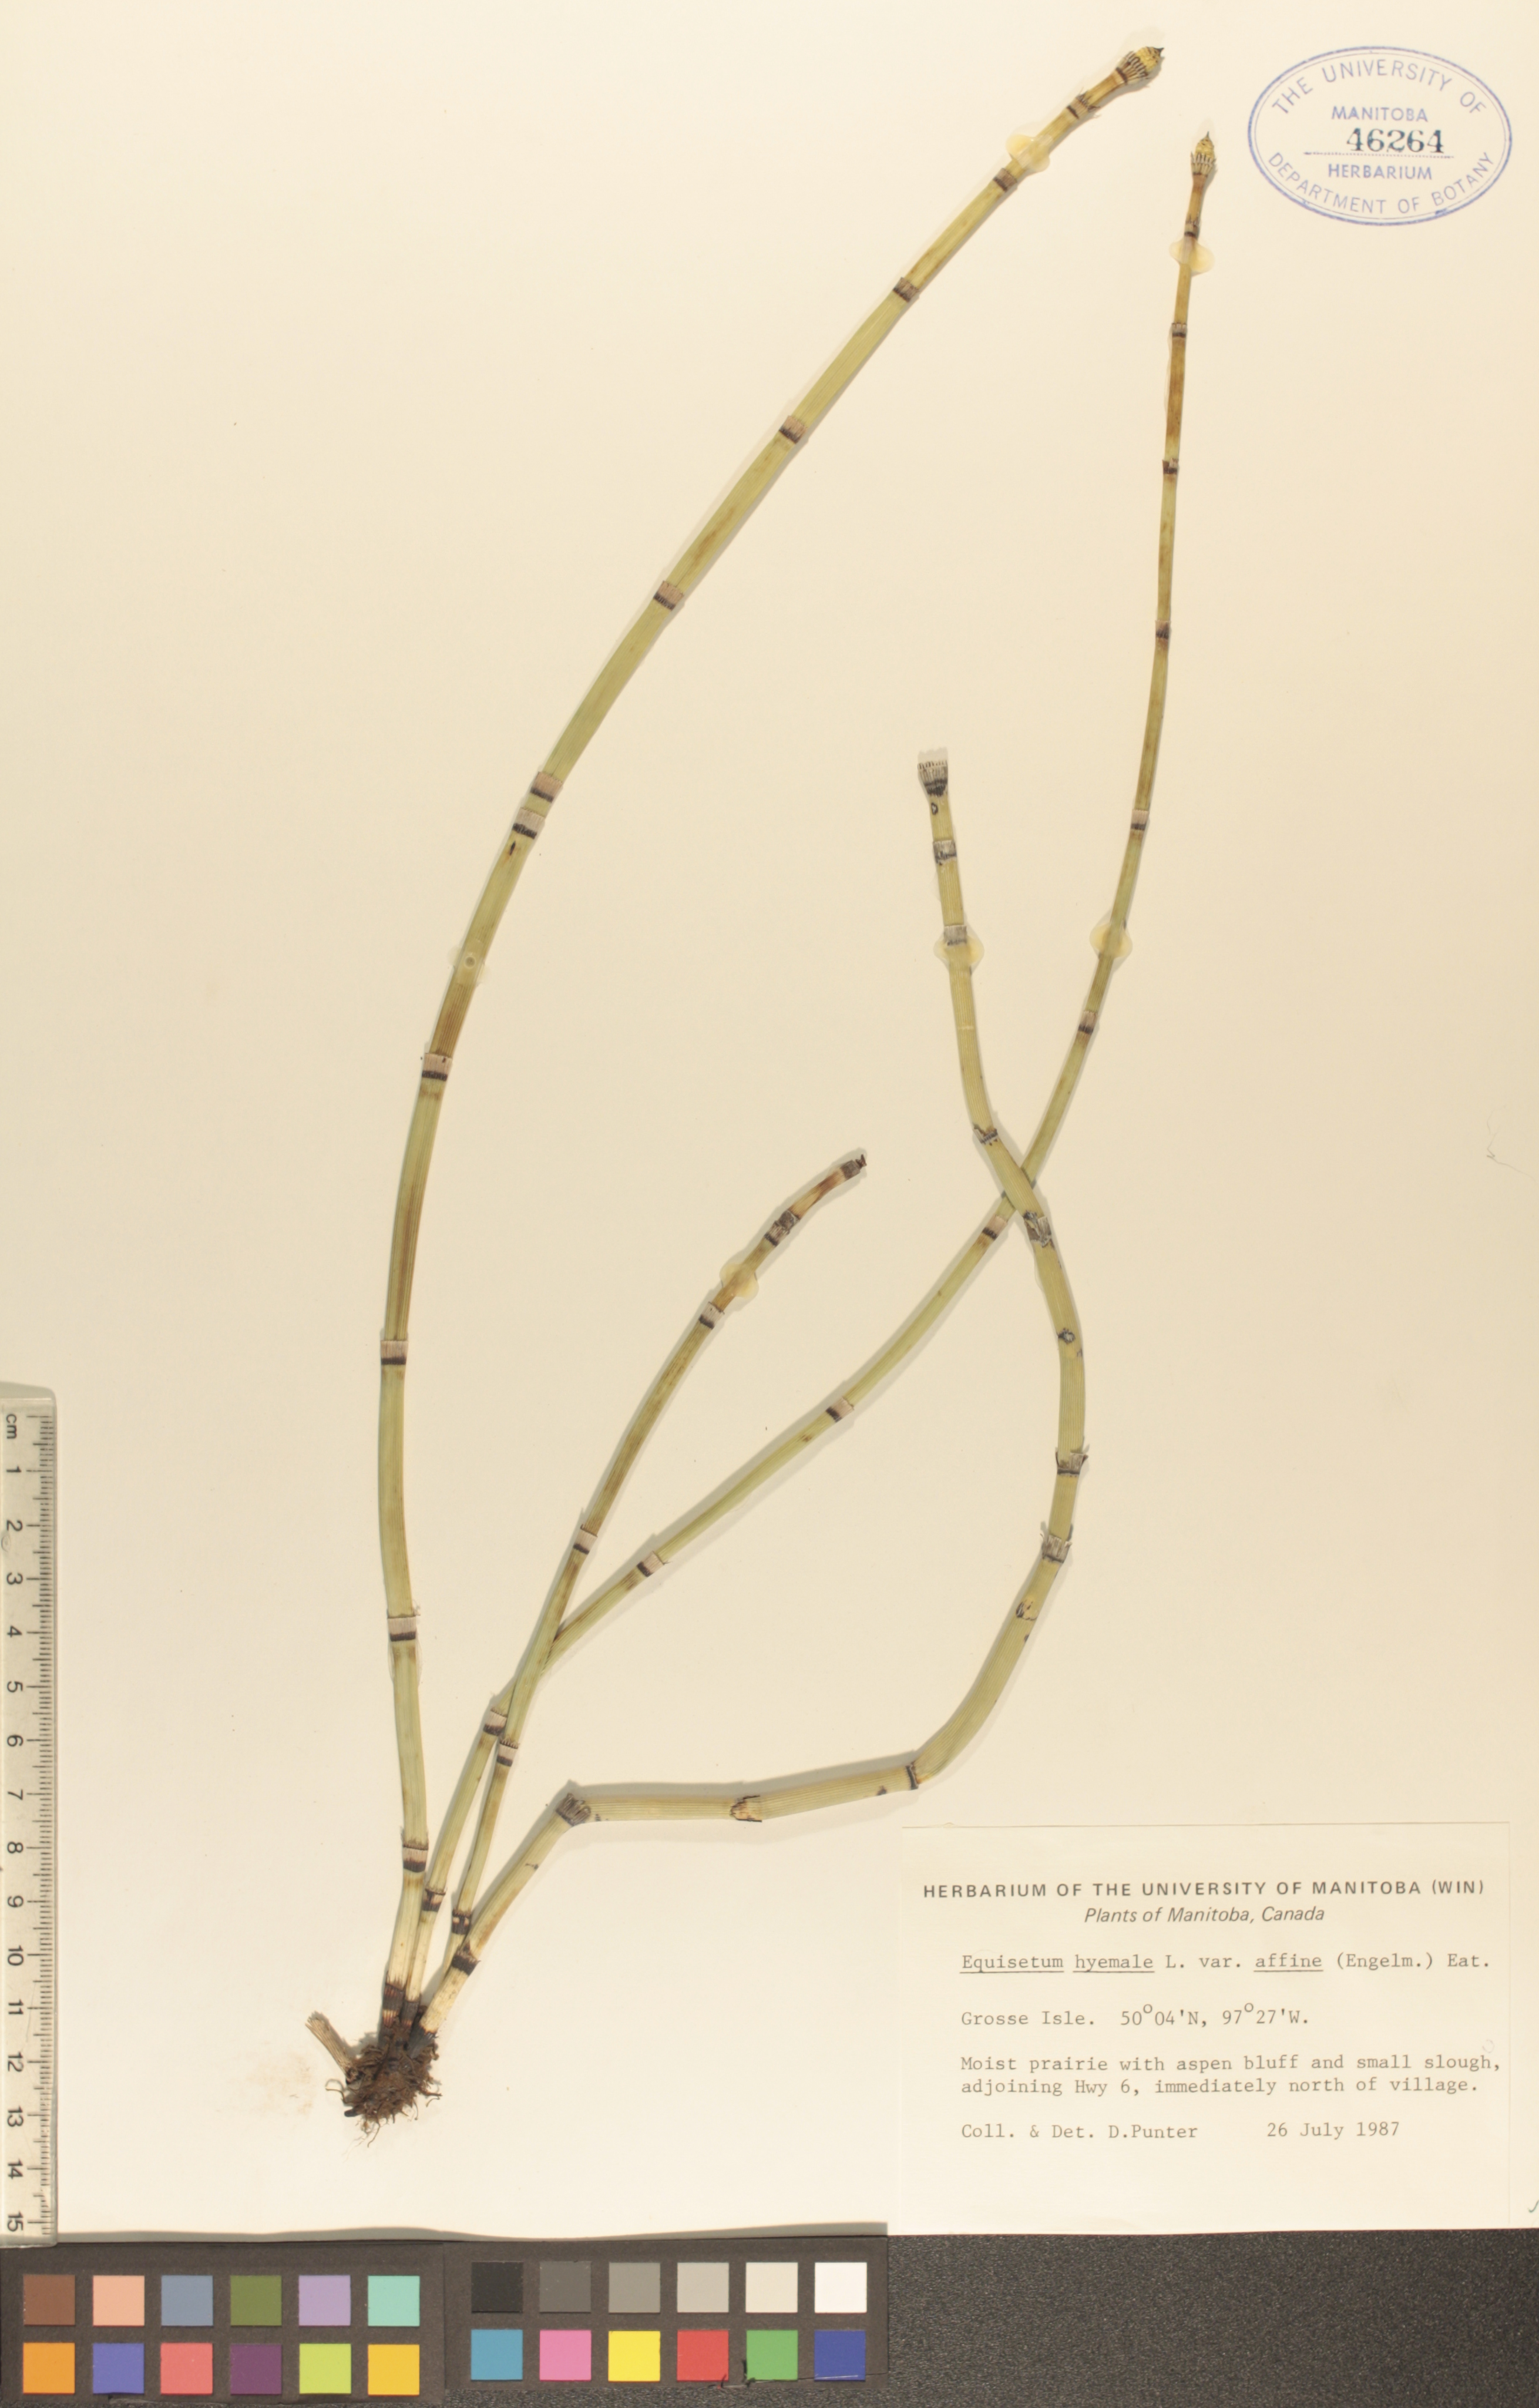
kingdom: Plantae
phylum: Tracheophyta
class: Polypodiopsida
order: Equisetales
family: Equisetaceae
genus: Equisetum
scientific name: Equisetum praealtum
